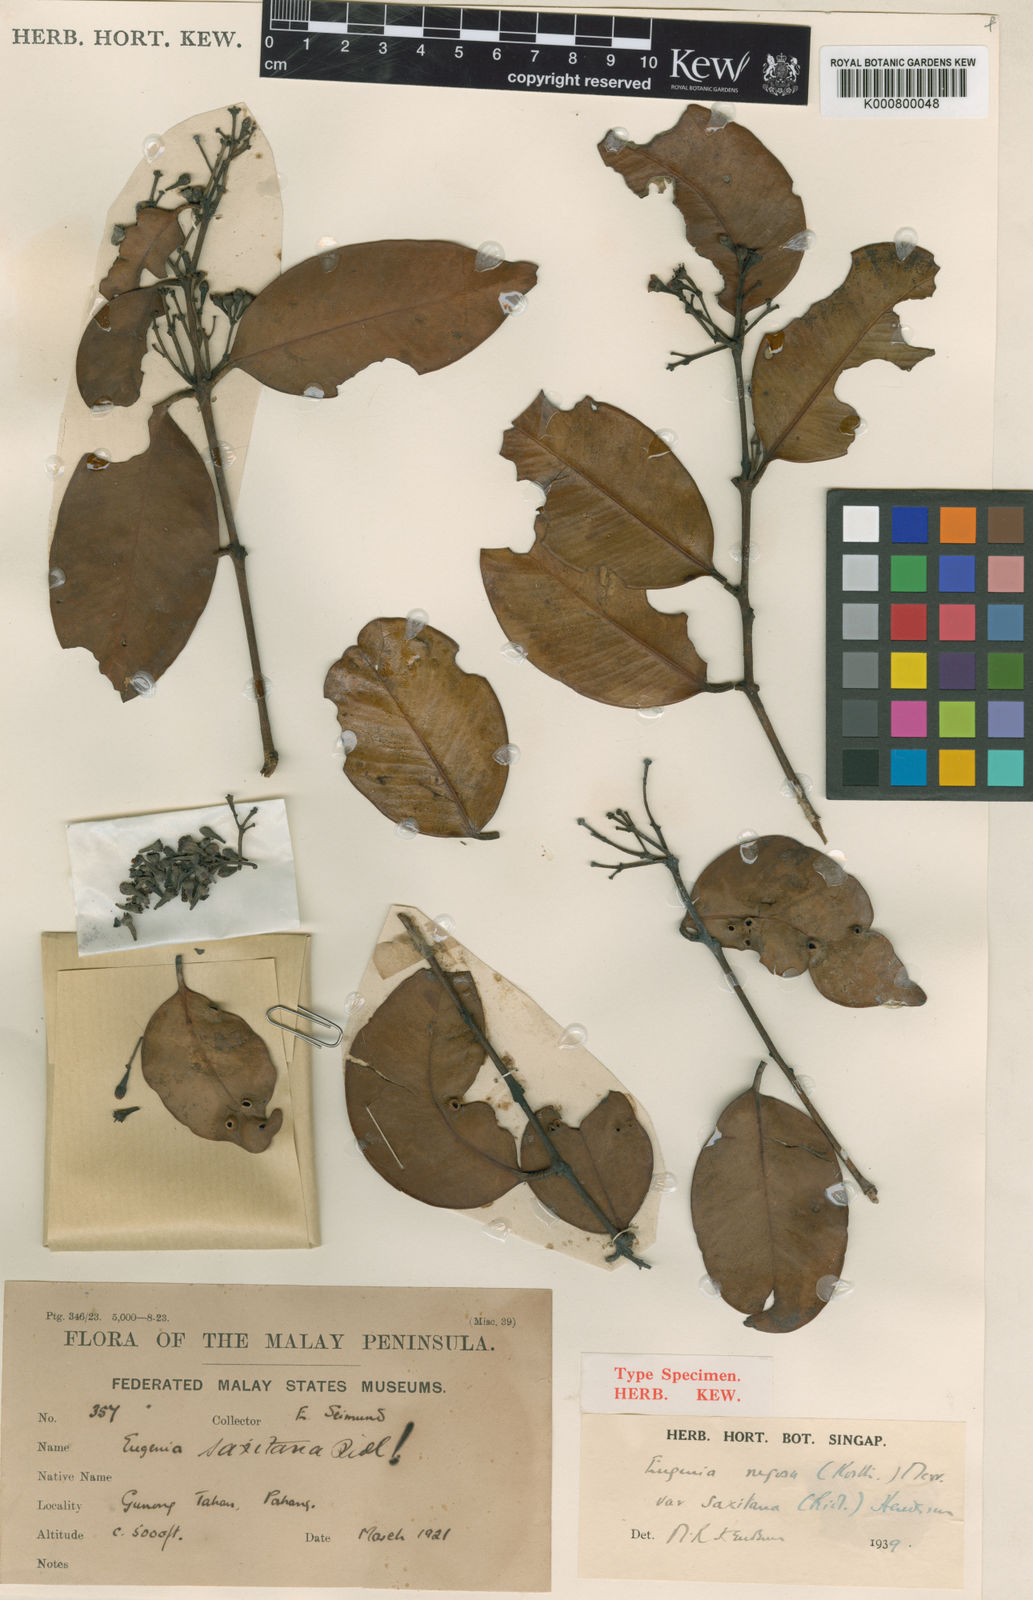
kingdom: Plantae
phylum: Tracheophyta
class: Magnoliopsida
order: Myrtales
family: Myrtaceae
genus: Syzygium
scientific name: Syzygium rugosum
